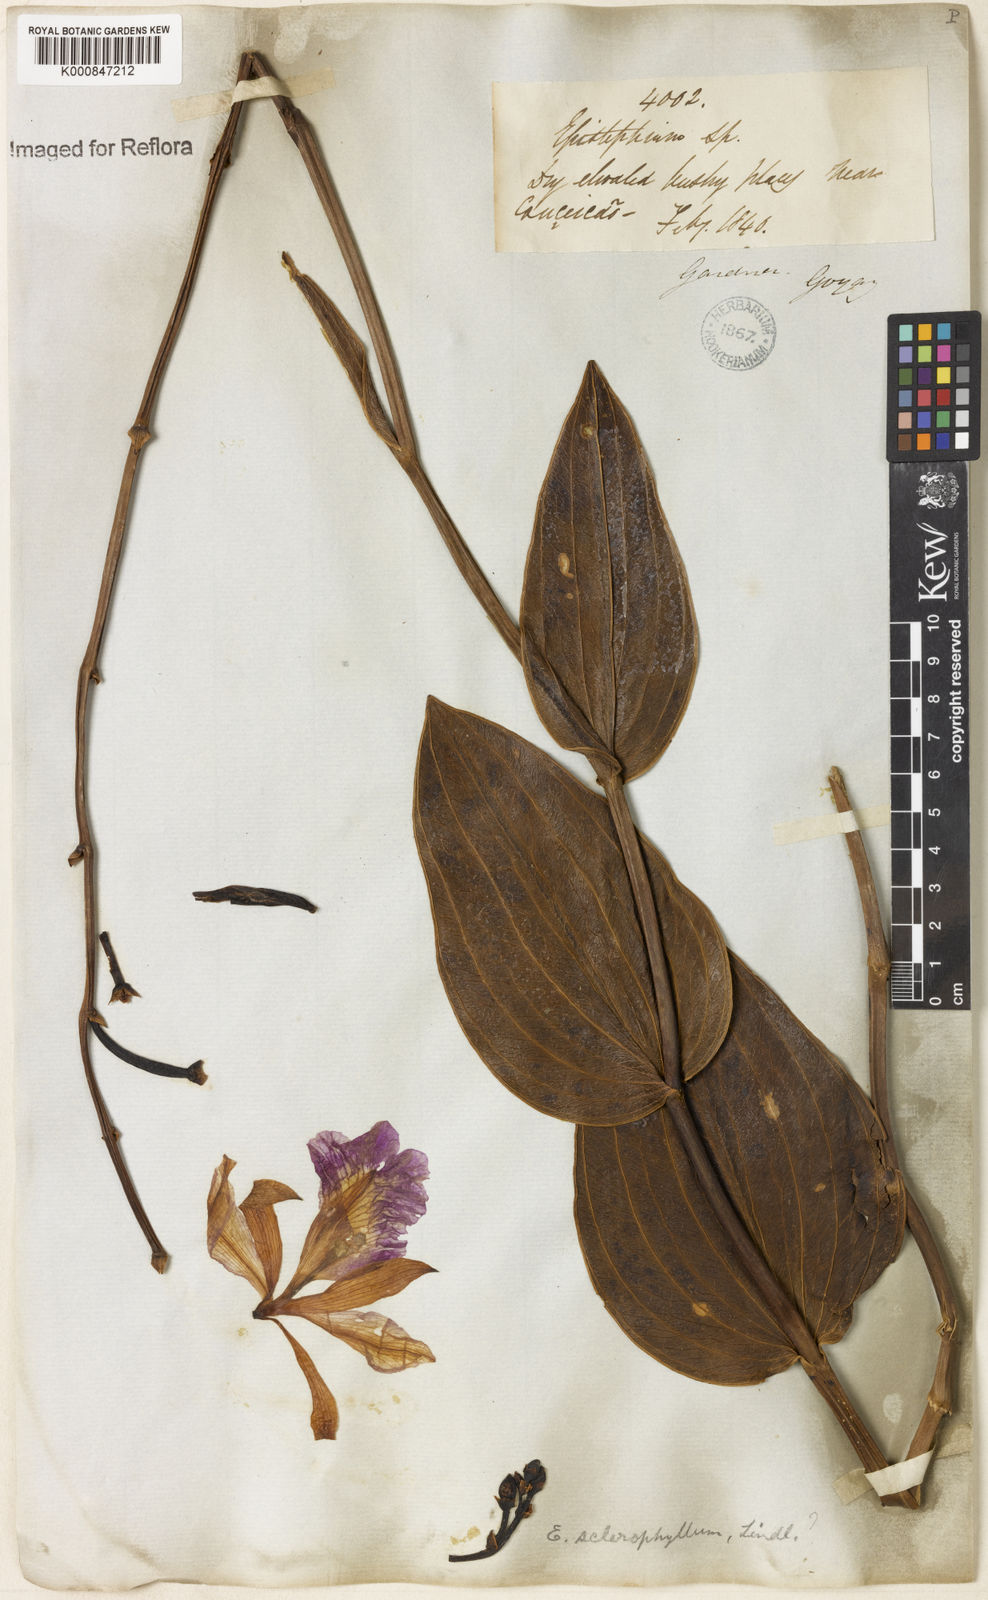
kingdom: Plantae
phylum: Tracheophyta
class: Liliopsida
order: Asparagales
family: Orchidaceae
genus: Epistephium
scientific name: Epistephium sclerophyllum
